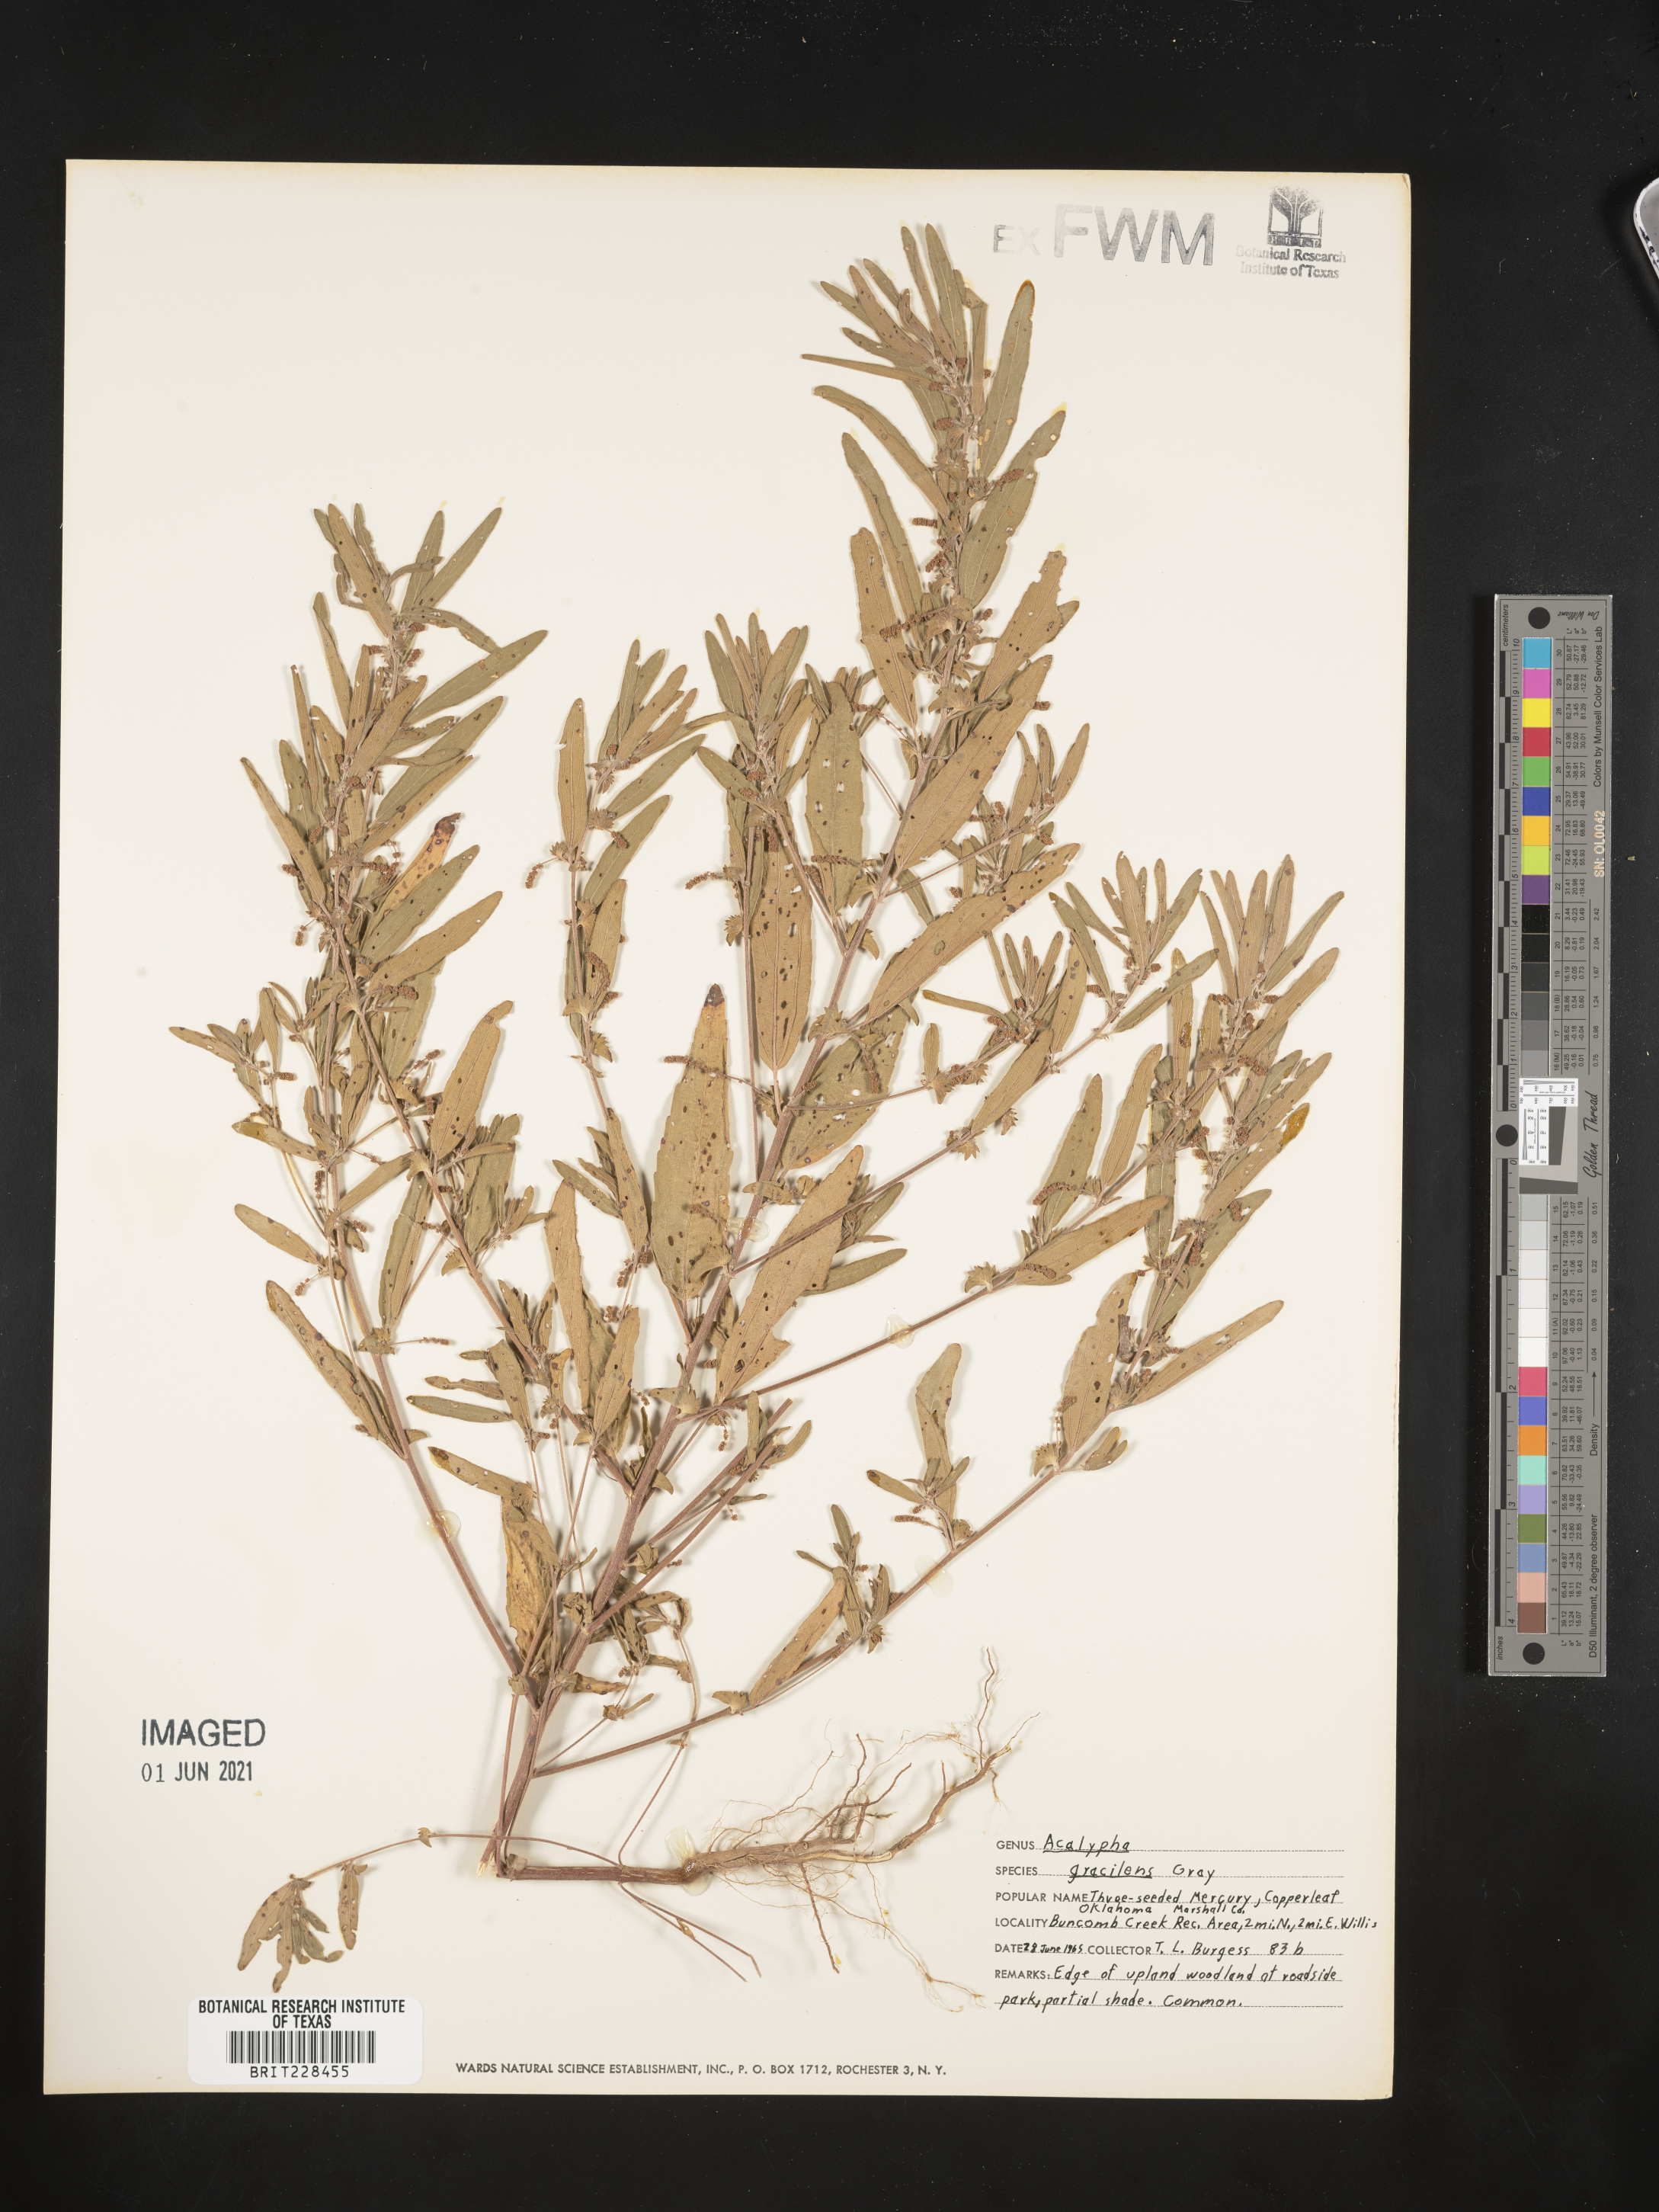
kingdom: Plantae
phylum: Tracheophyta
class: Magnoliopsida
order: Malpighiales
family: Euphorbiaceae
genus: Acalypha
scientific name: Acalypha gracilens
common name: Slender three-seeded mercury
